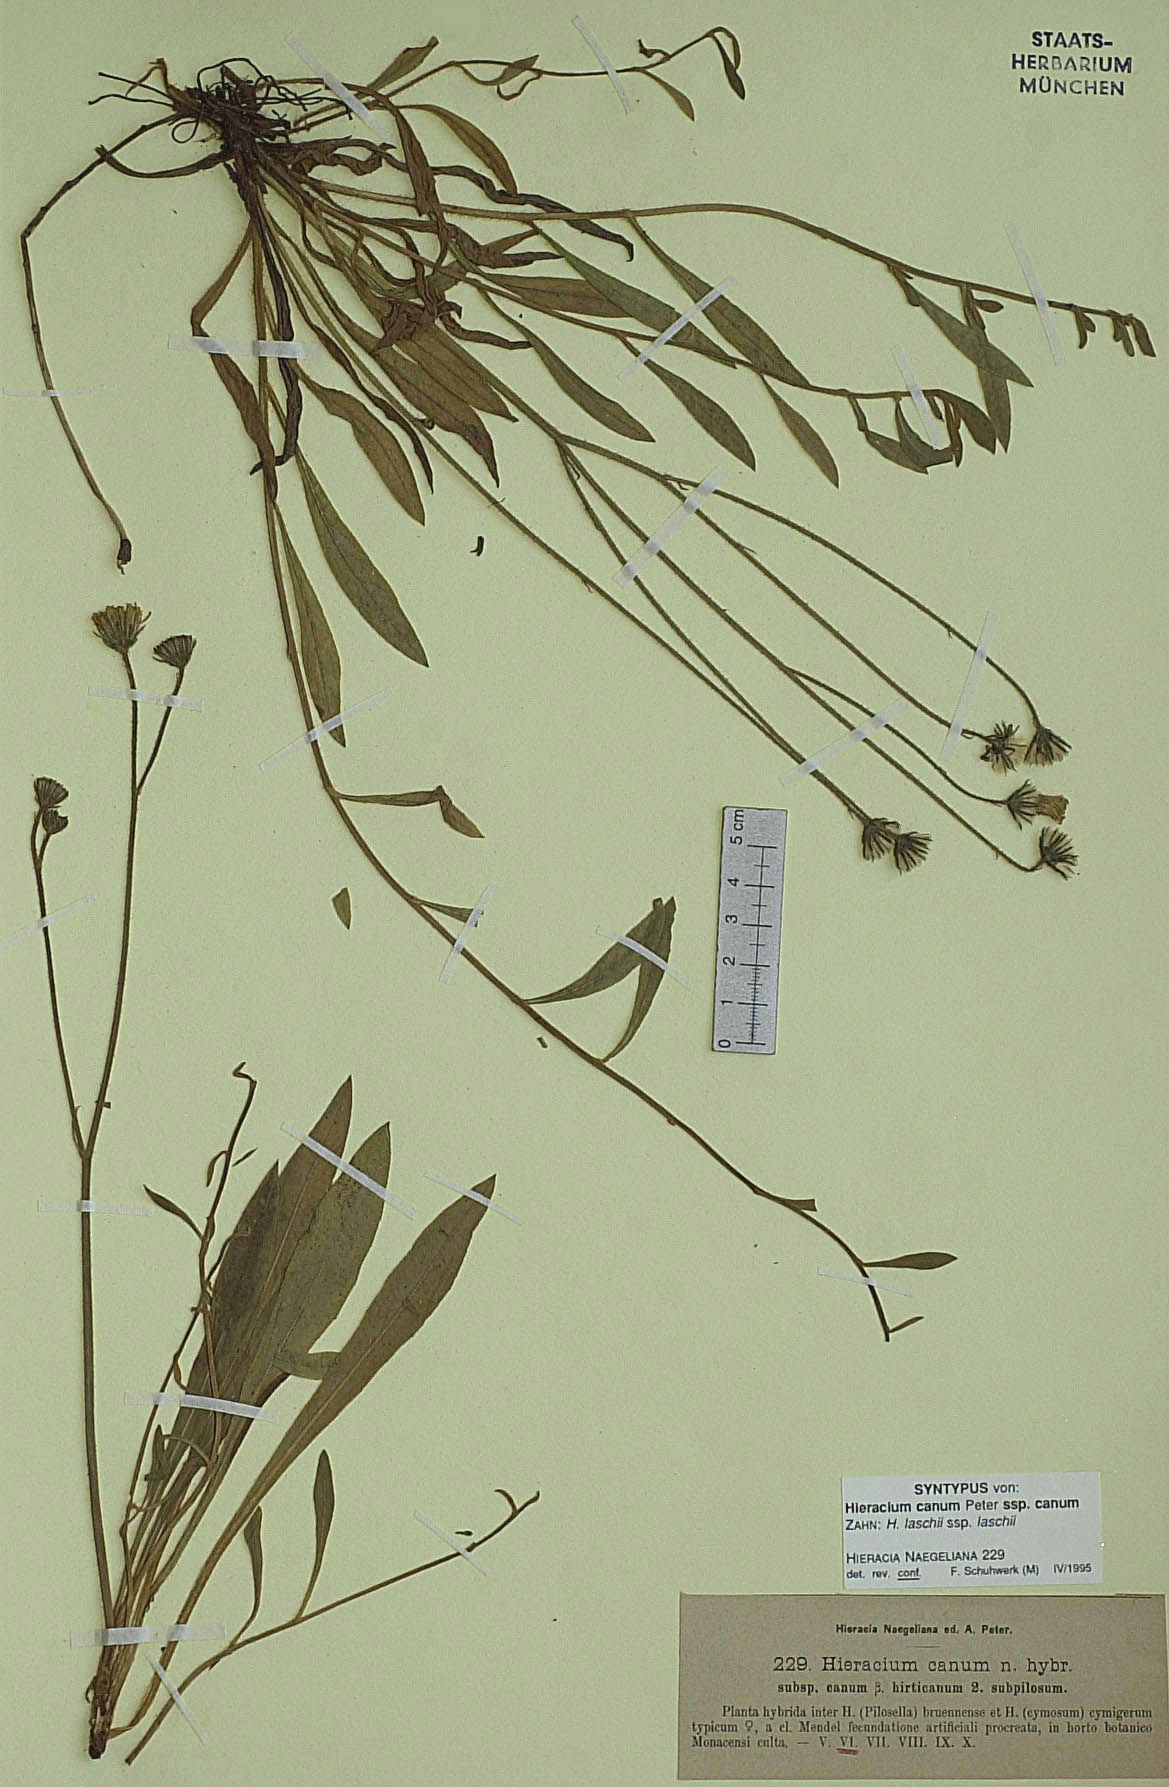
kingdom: Plantae
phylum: Tracheophyta
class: Magnoliopsida
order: Asterales
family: Asteraceae
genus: Pilosella
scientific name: Pilosella acutifolia
